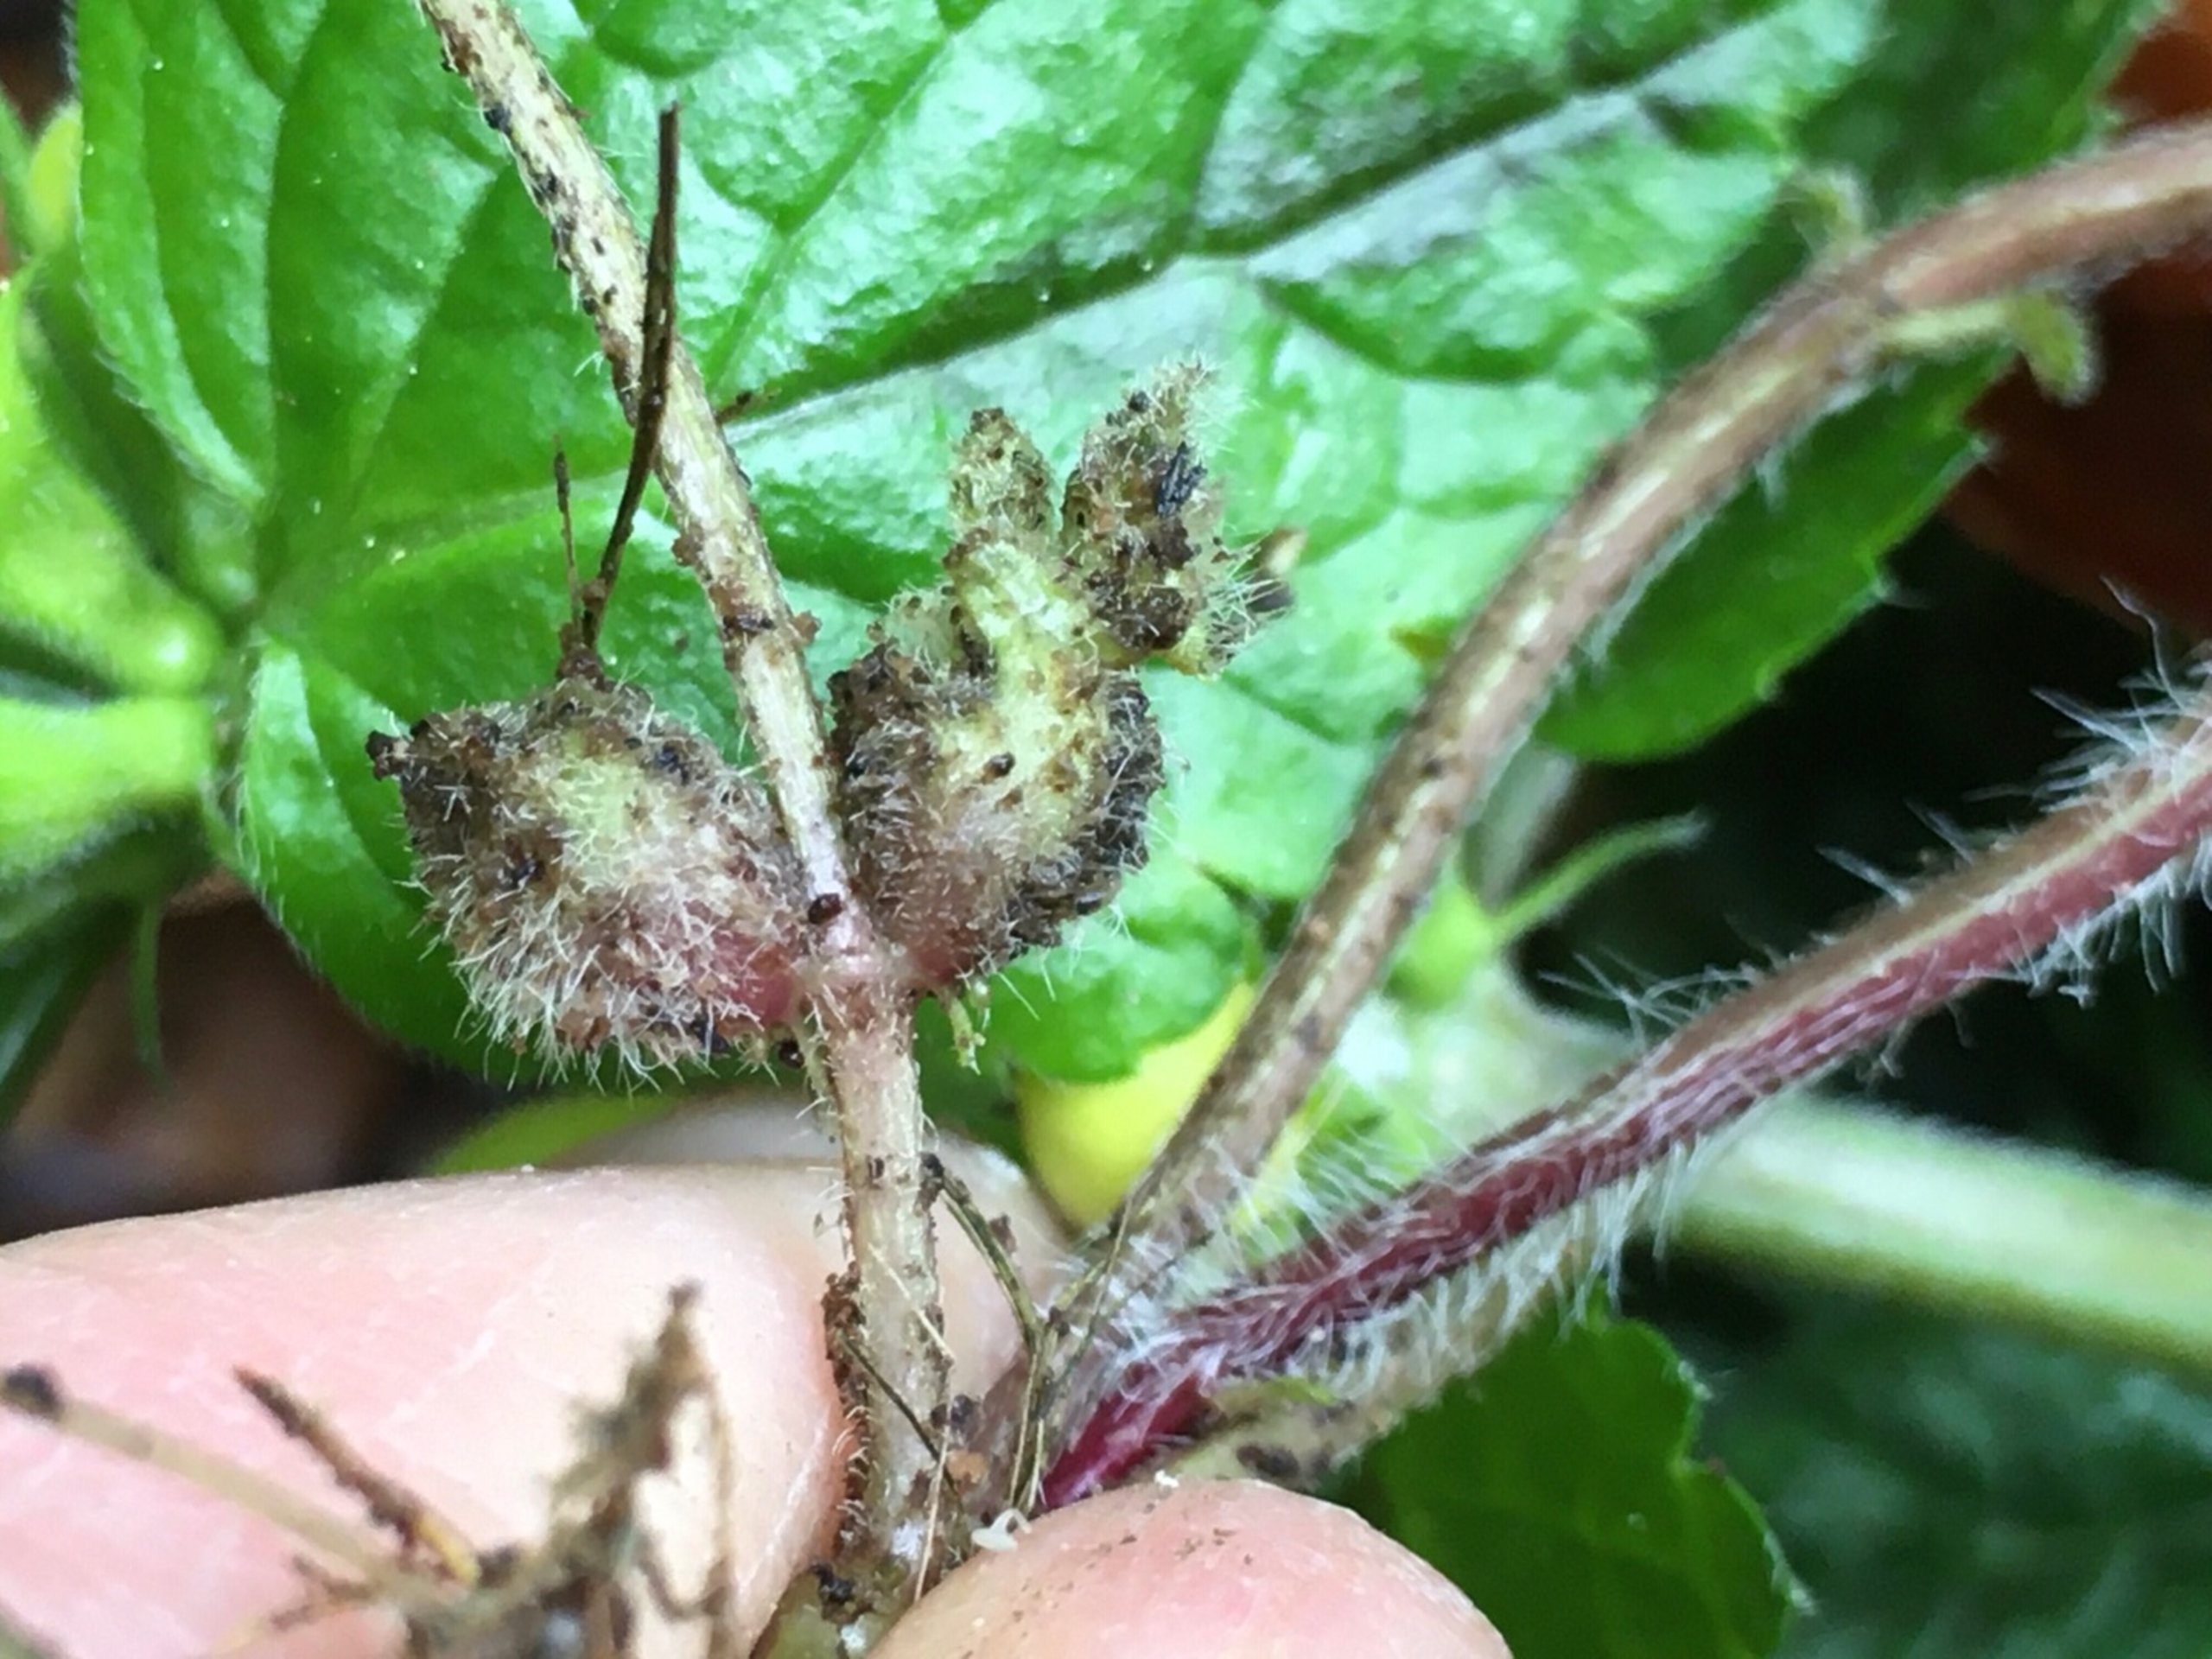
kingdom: Animalia
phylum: Arthropoda
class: Insecta
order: Diptera
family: Cecidomyiidae
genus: Dasineura
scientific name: Dasineura strumosa
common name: Guldnældegalmyg
